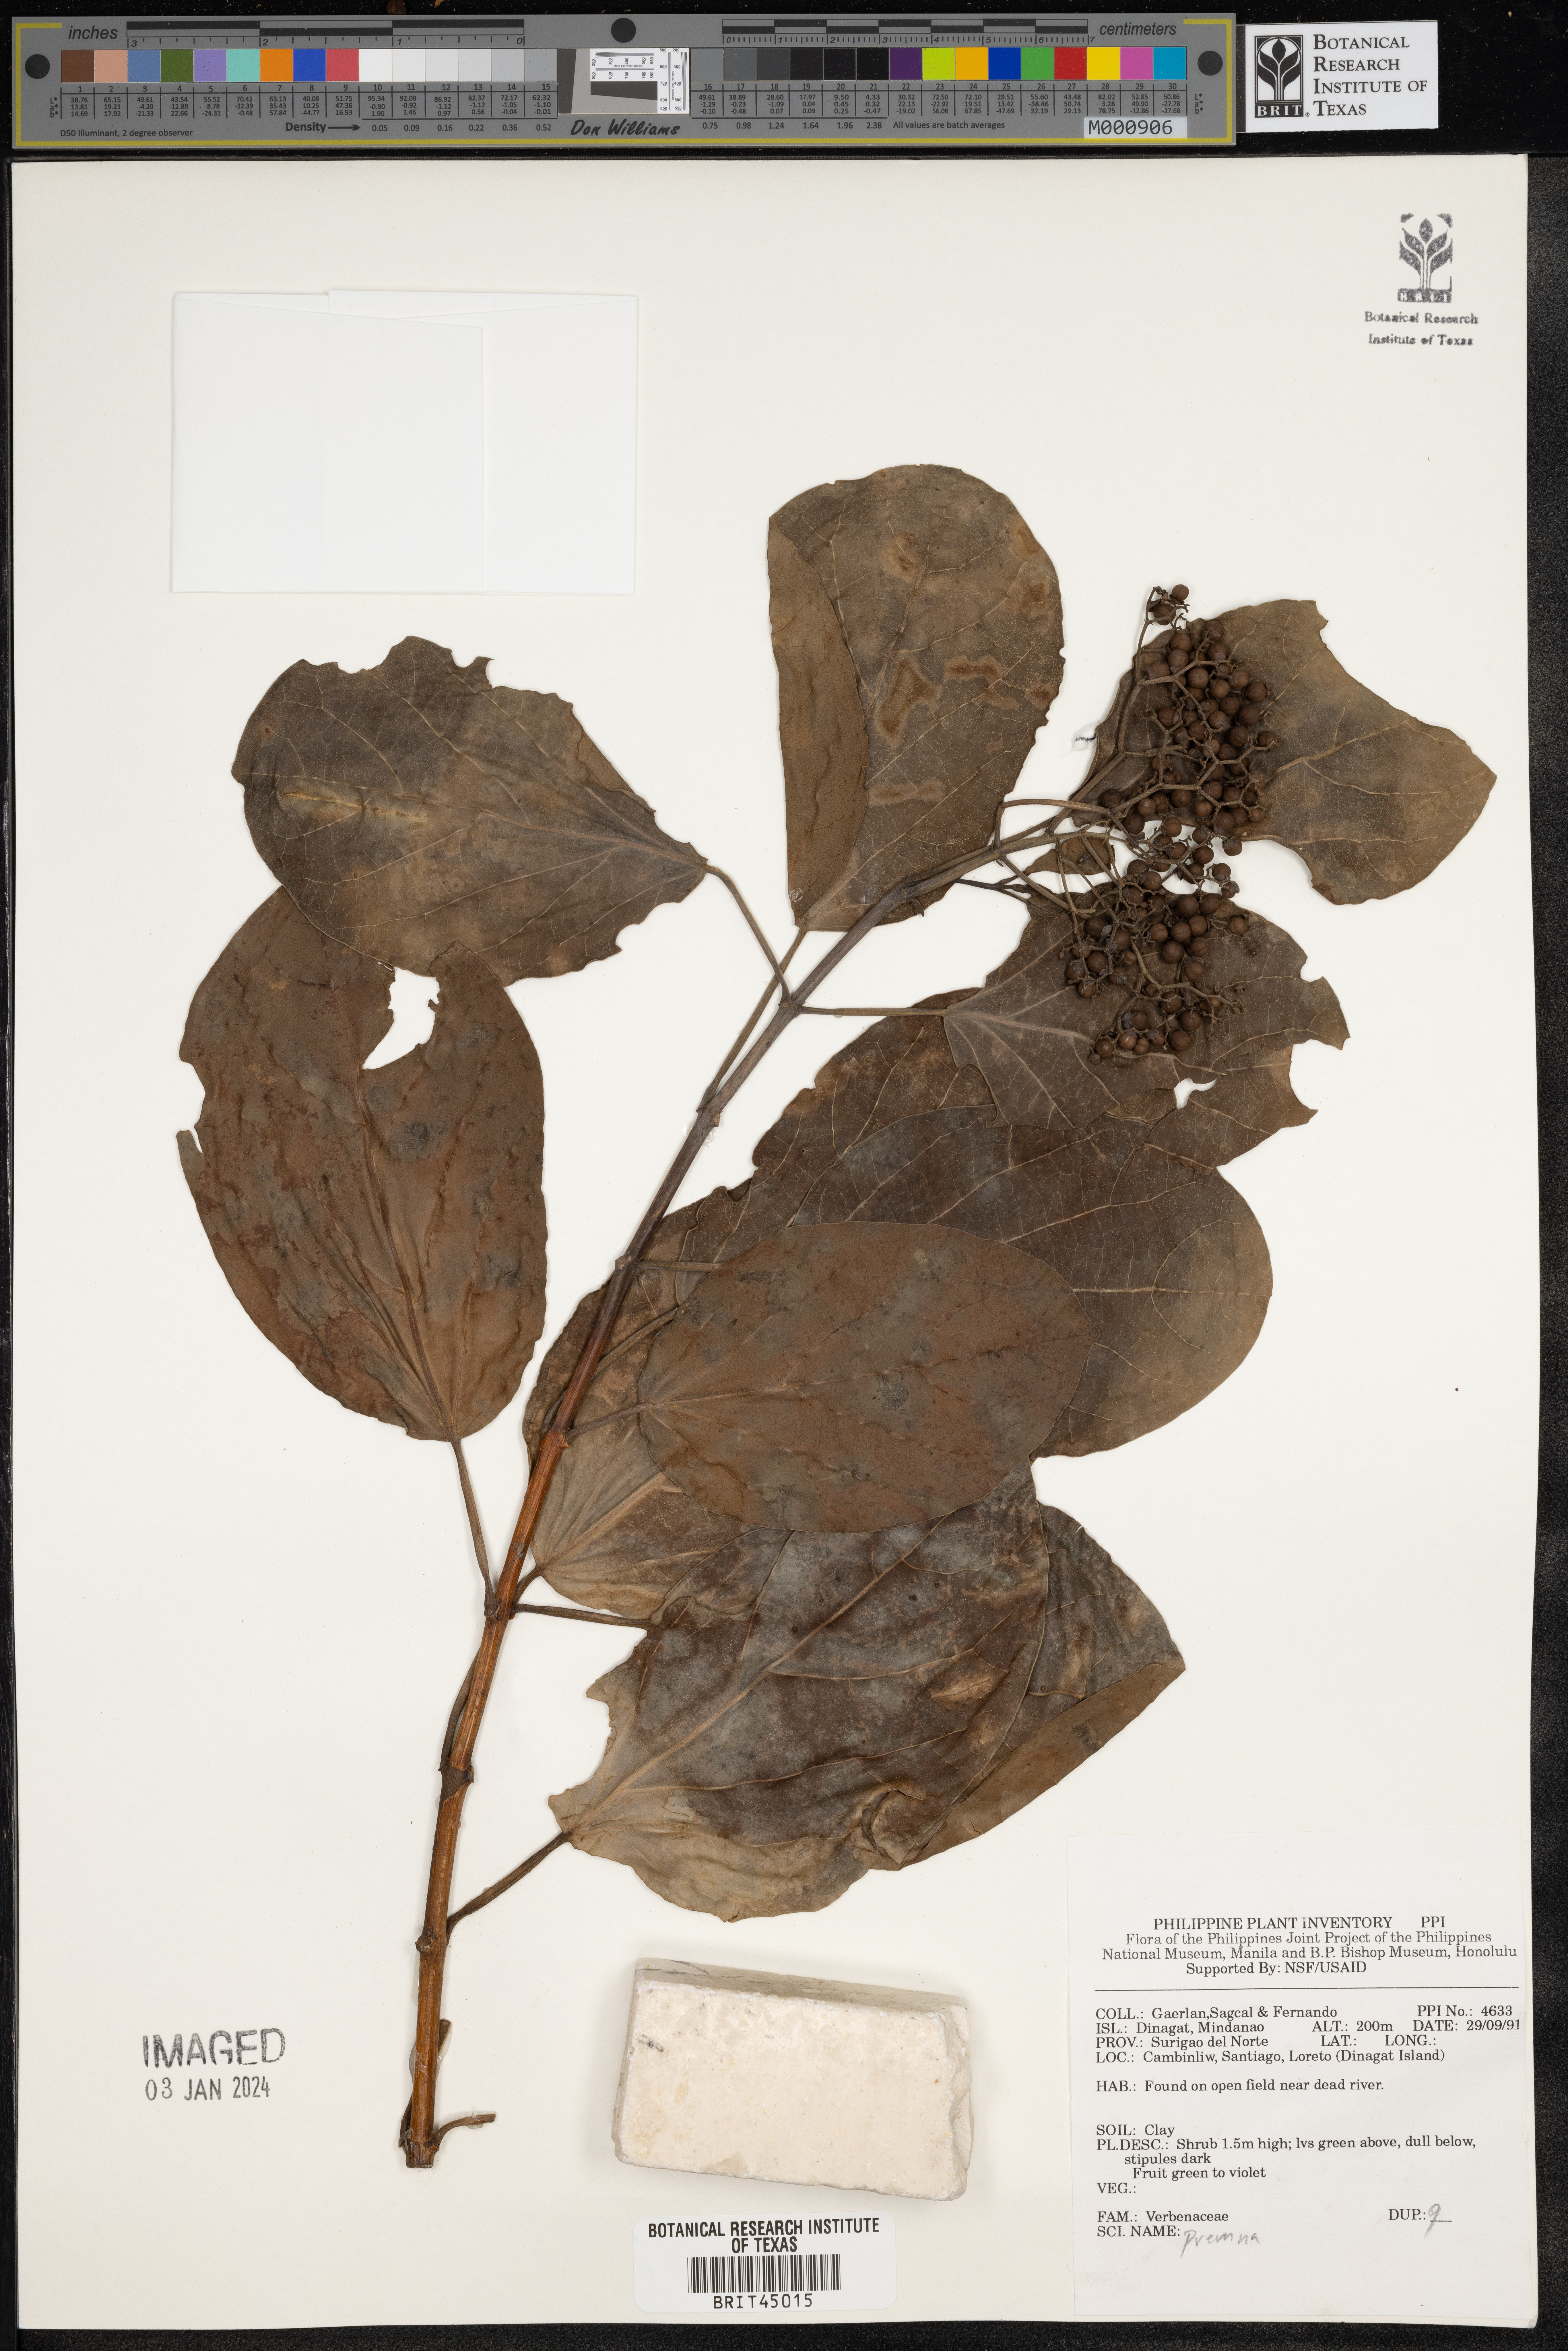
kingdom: Plantae
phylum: Tracheophyta
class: Magnoliopsida
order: Lamiales
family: Lamiaceae
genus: Premna
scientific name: Premna
